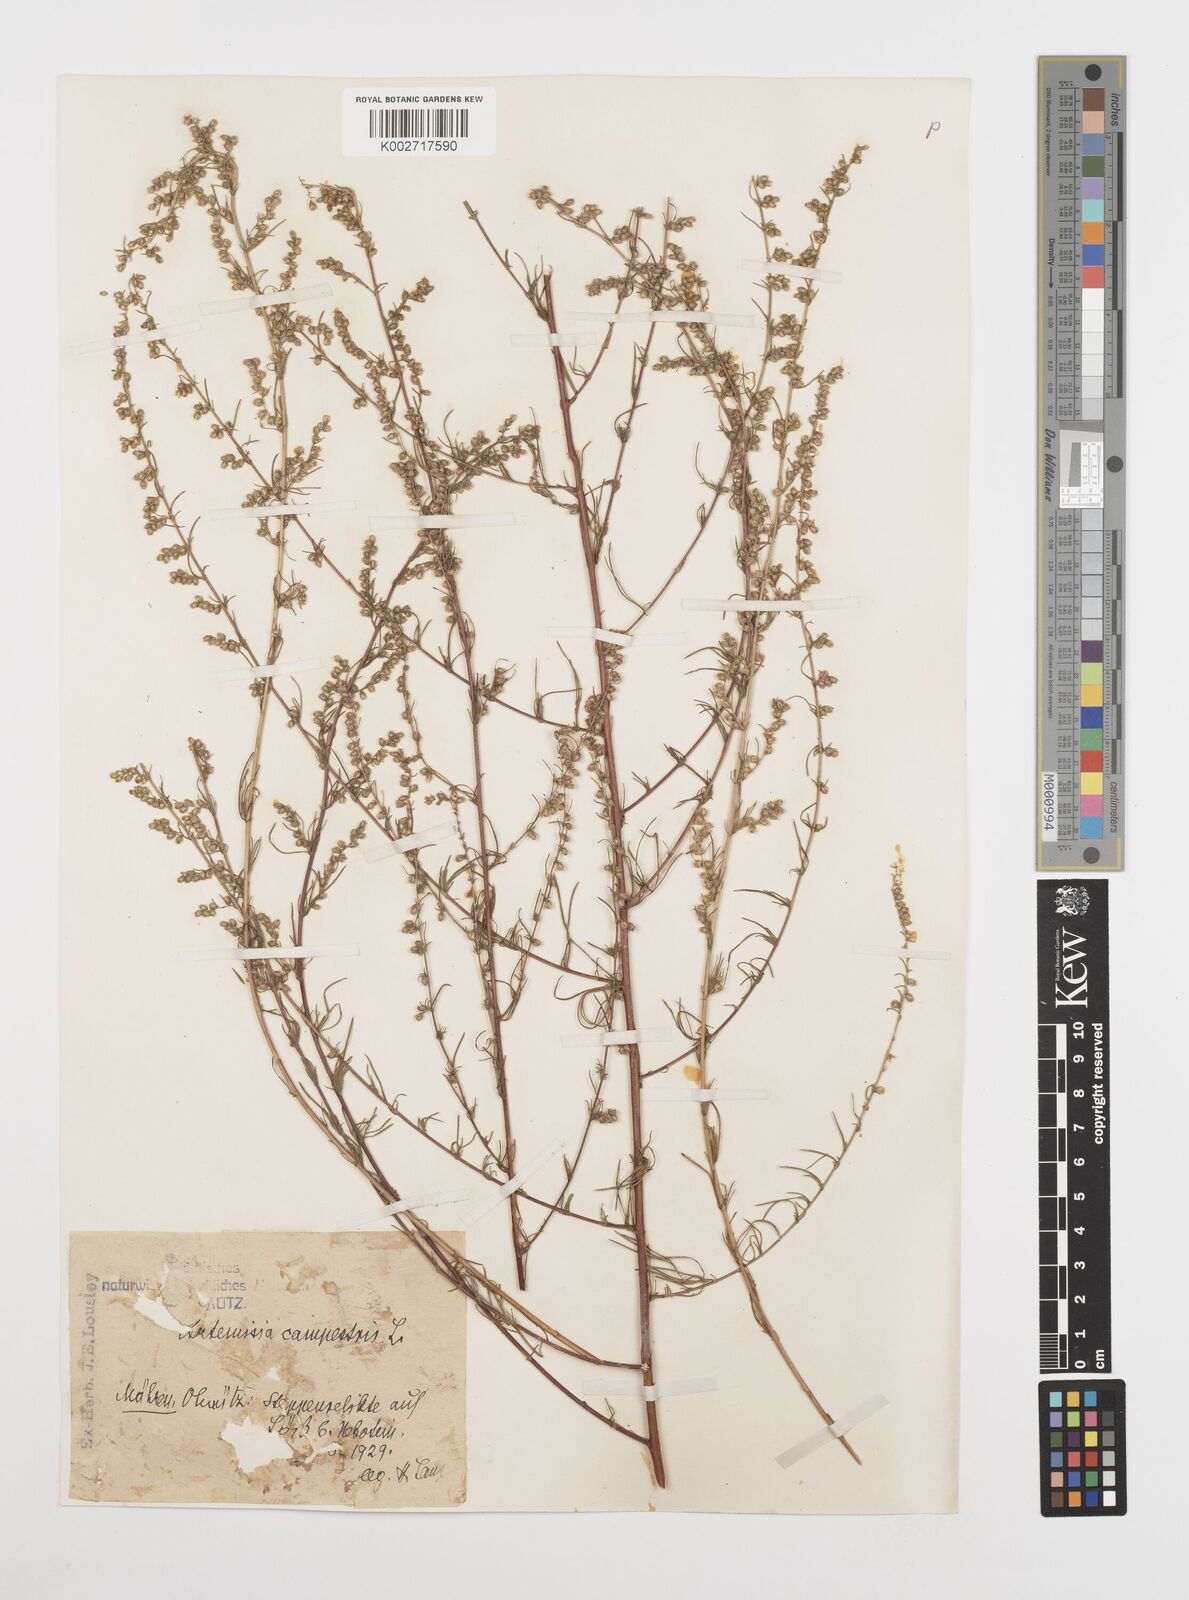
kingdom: Plantae
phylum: Tracheophyta
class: Magnoliopsida
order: Asterales
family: Asteraceae
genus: Artemisia
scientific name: Artemisia campestris
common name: Field wormwood
